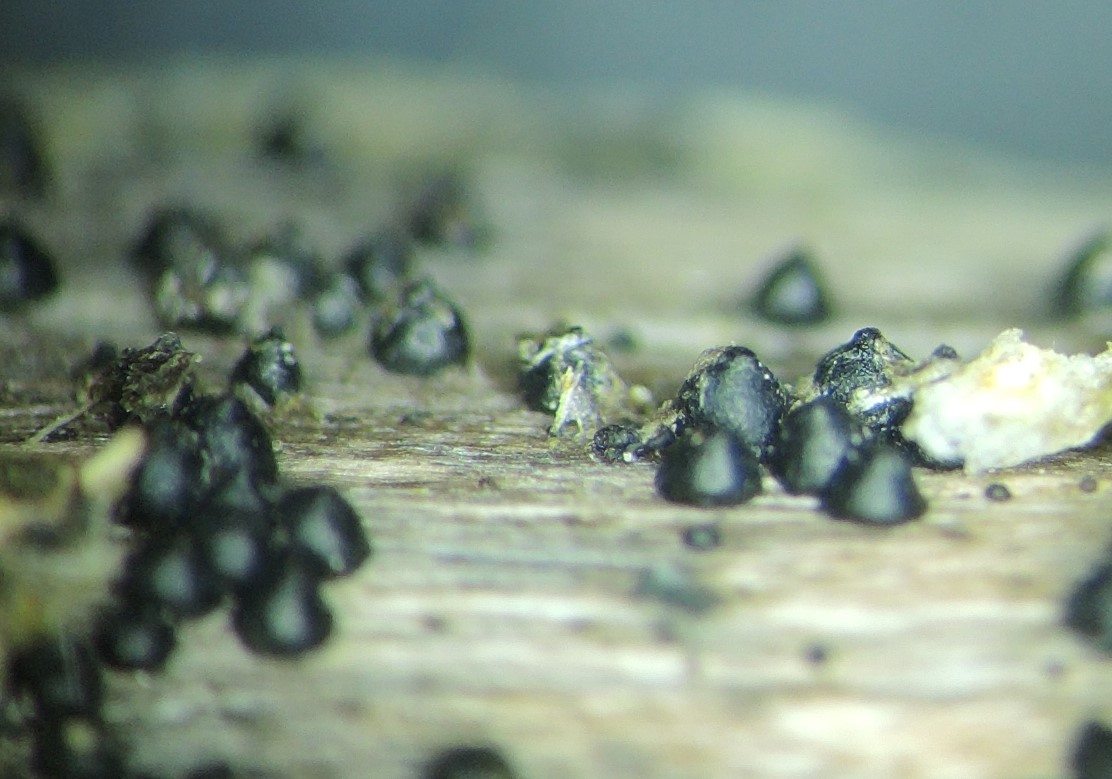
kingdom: Fungi
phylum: Ascomycota
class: Dothideomycetes
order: Pleosporales
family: Leptosphaeriaceae
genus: Leptosphaeria
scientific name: Leptosphaeria acuta
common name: spids kulkegle
